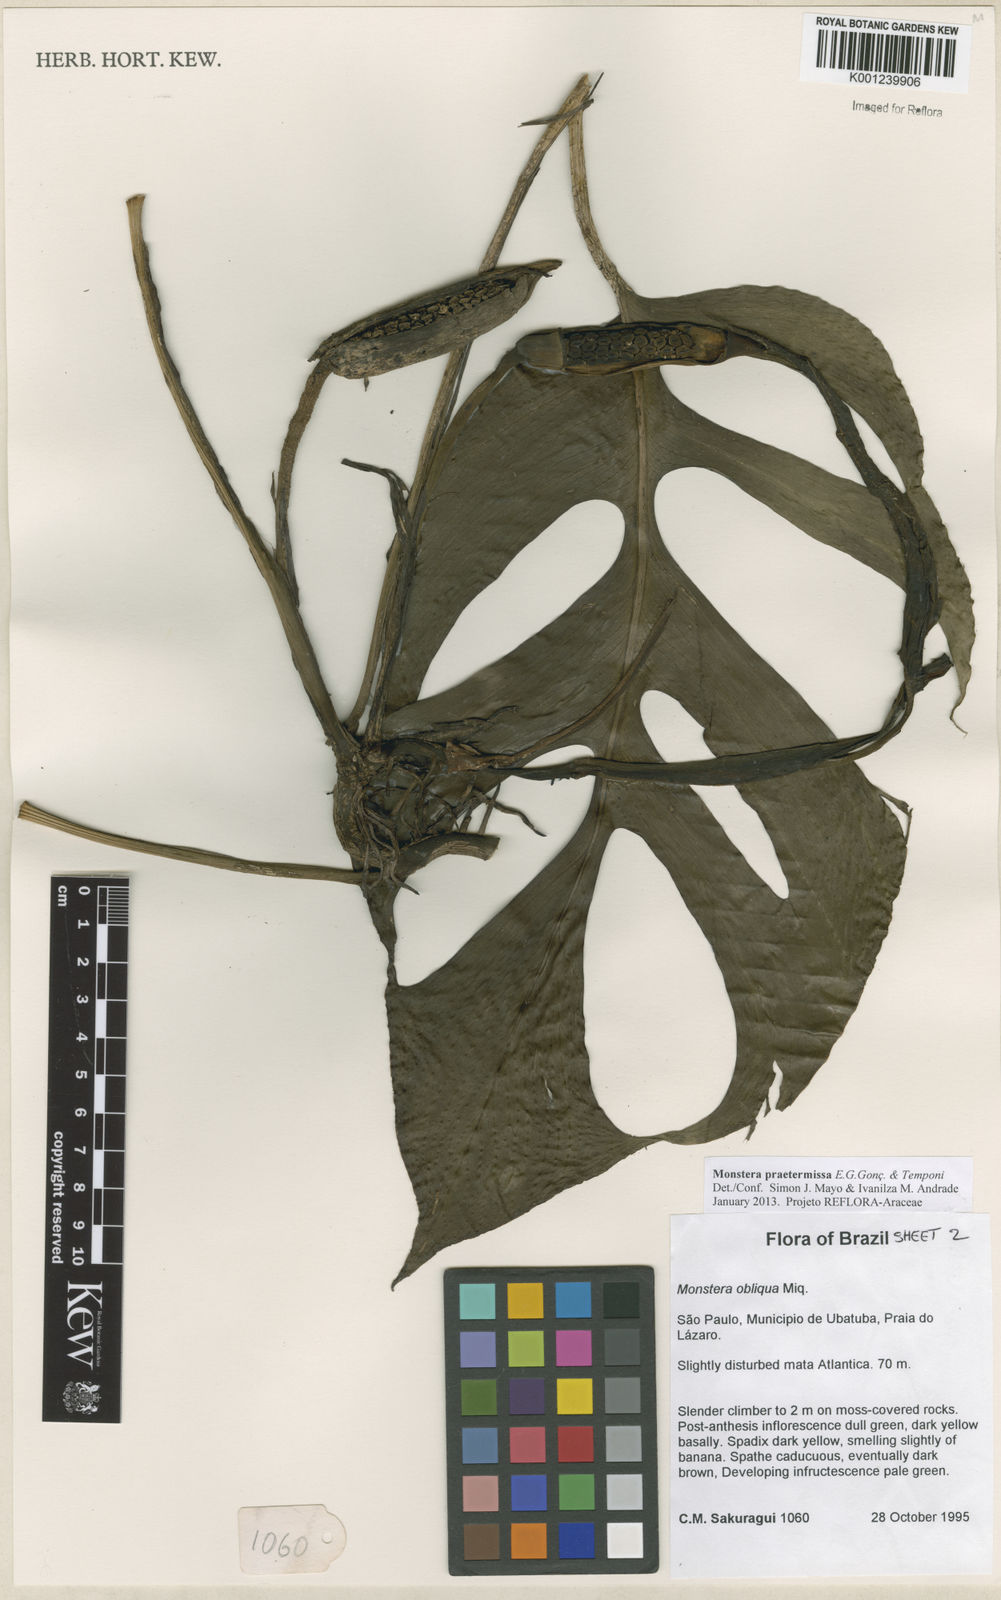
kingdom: Plantae
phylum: Tracheophyta
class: Liliopsida
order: Alismatales
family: Araceae
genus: Monstera
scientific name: Monstera praetermissa
